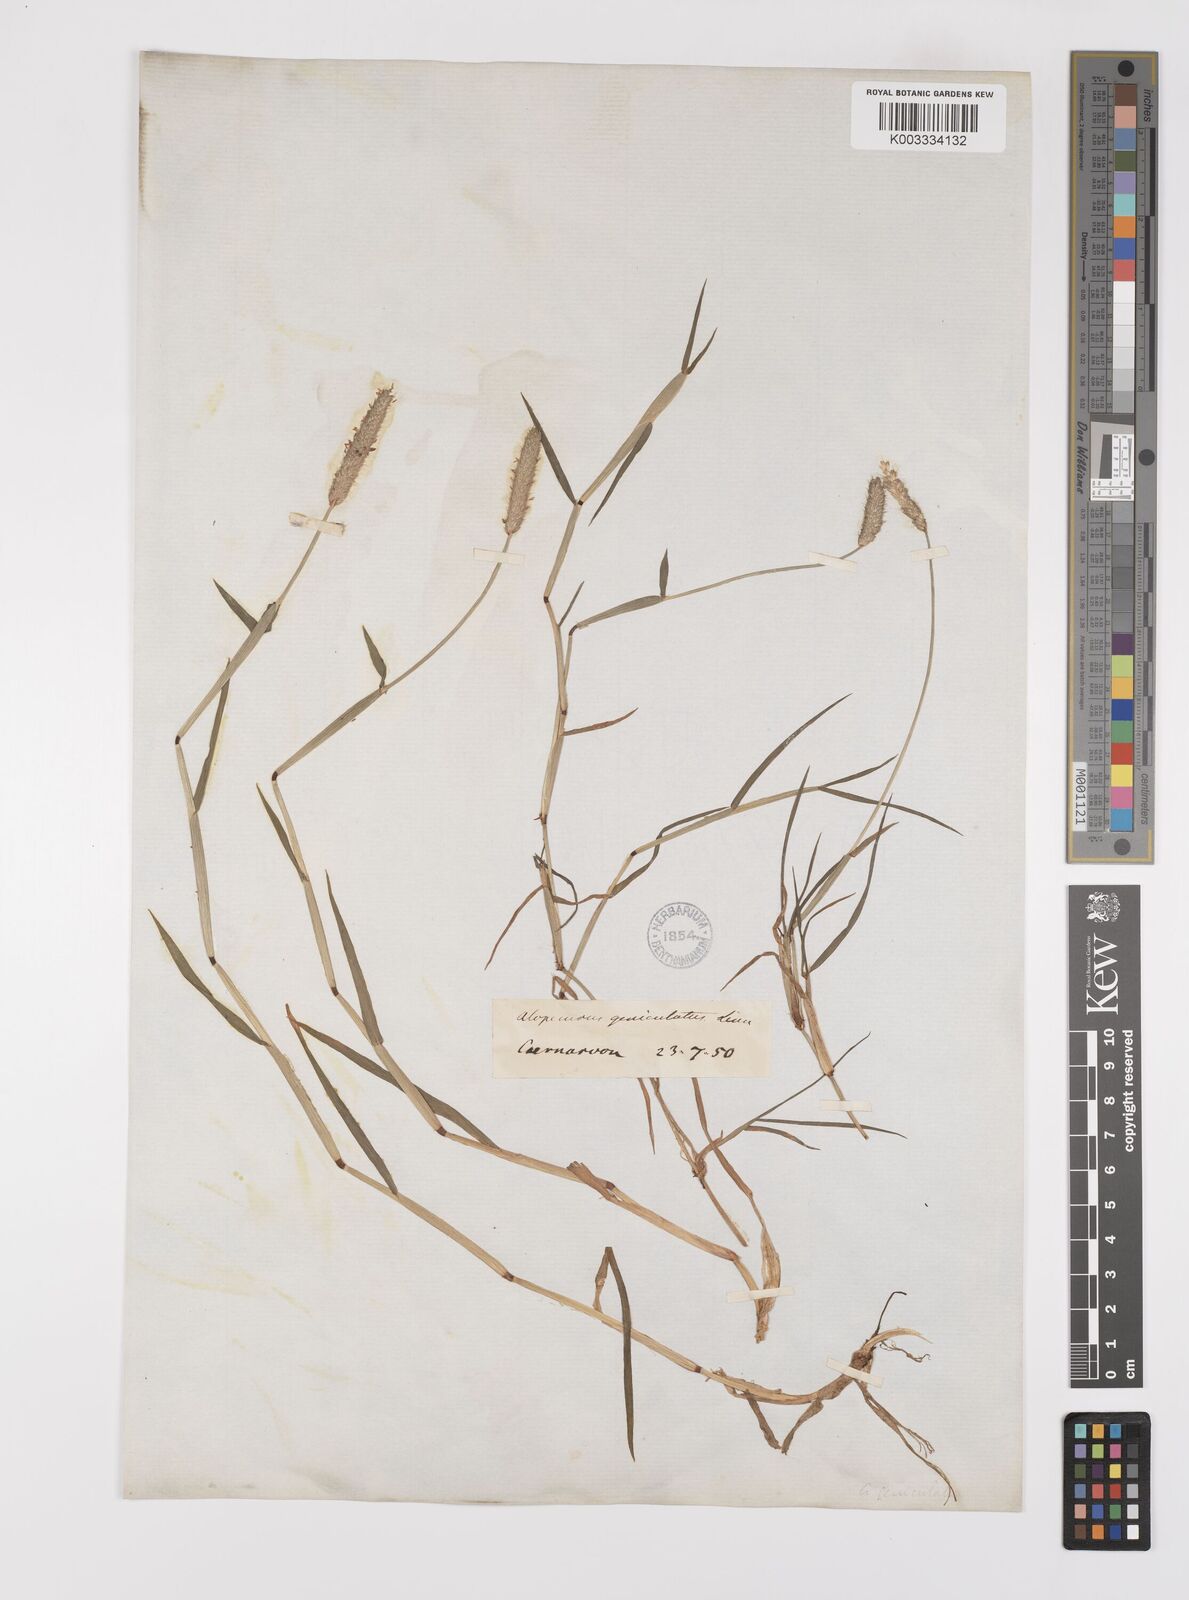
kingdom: Plantae
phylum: Tracheophyta
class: Liliopsida
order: Poales
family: Poaceae
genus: Alopecurus
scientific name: Alopecurus geniculatus
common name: Water foxtail
